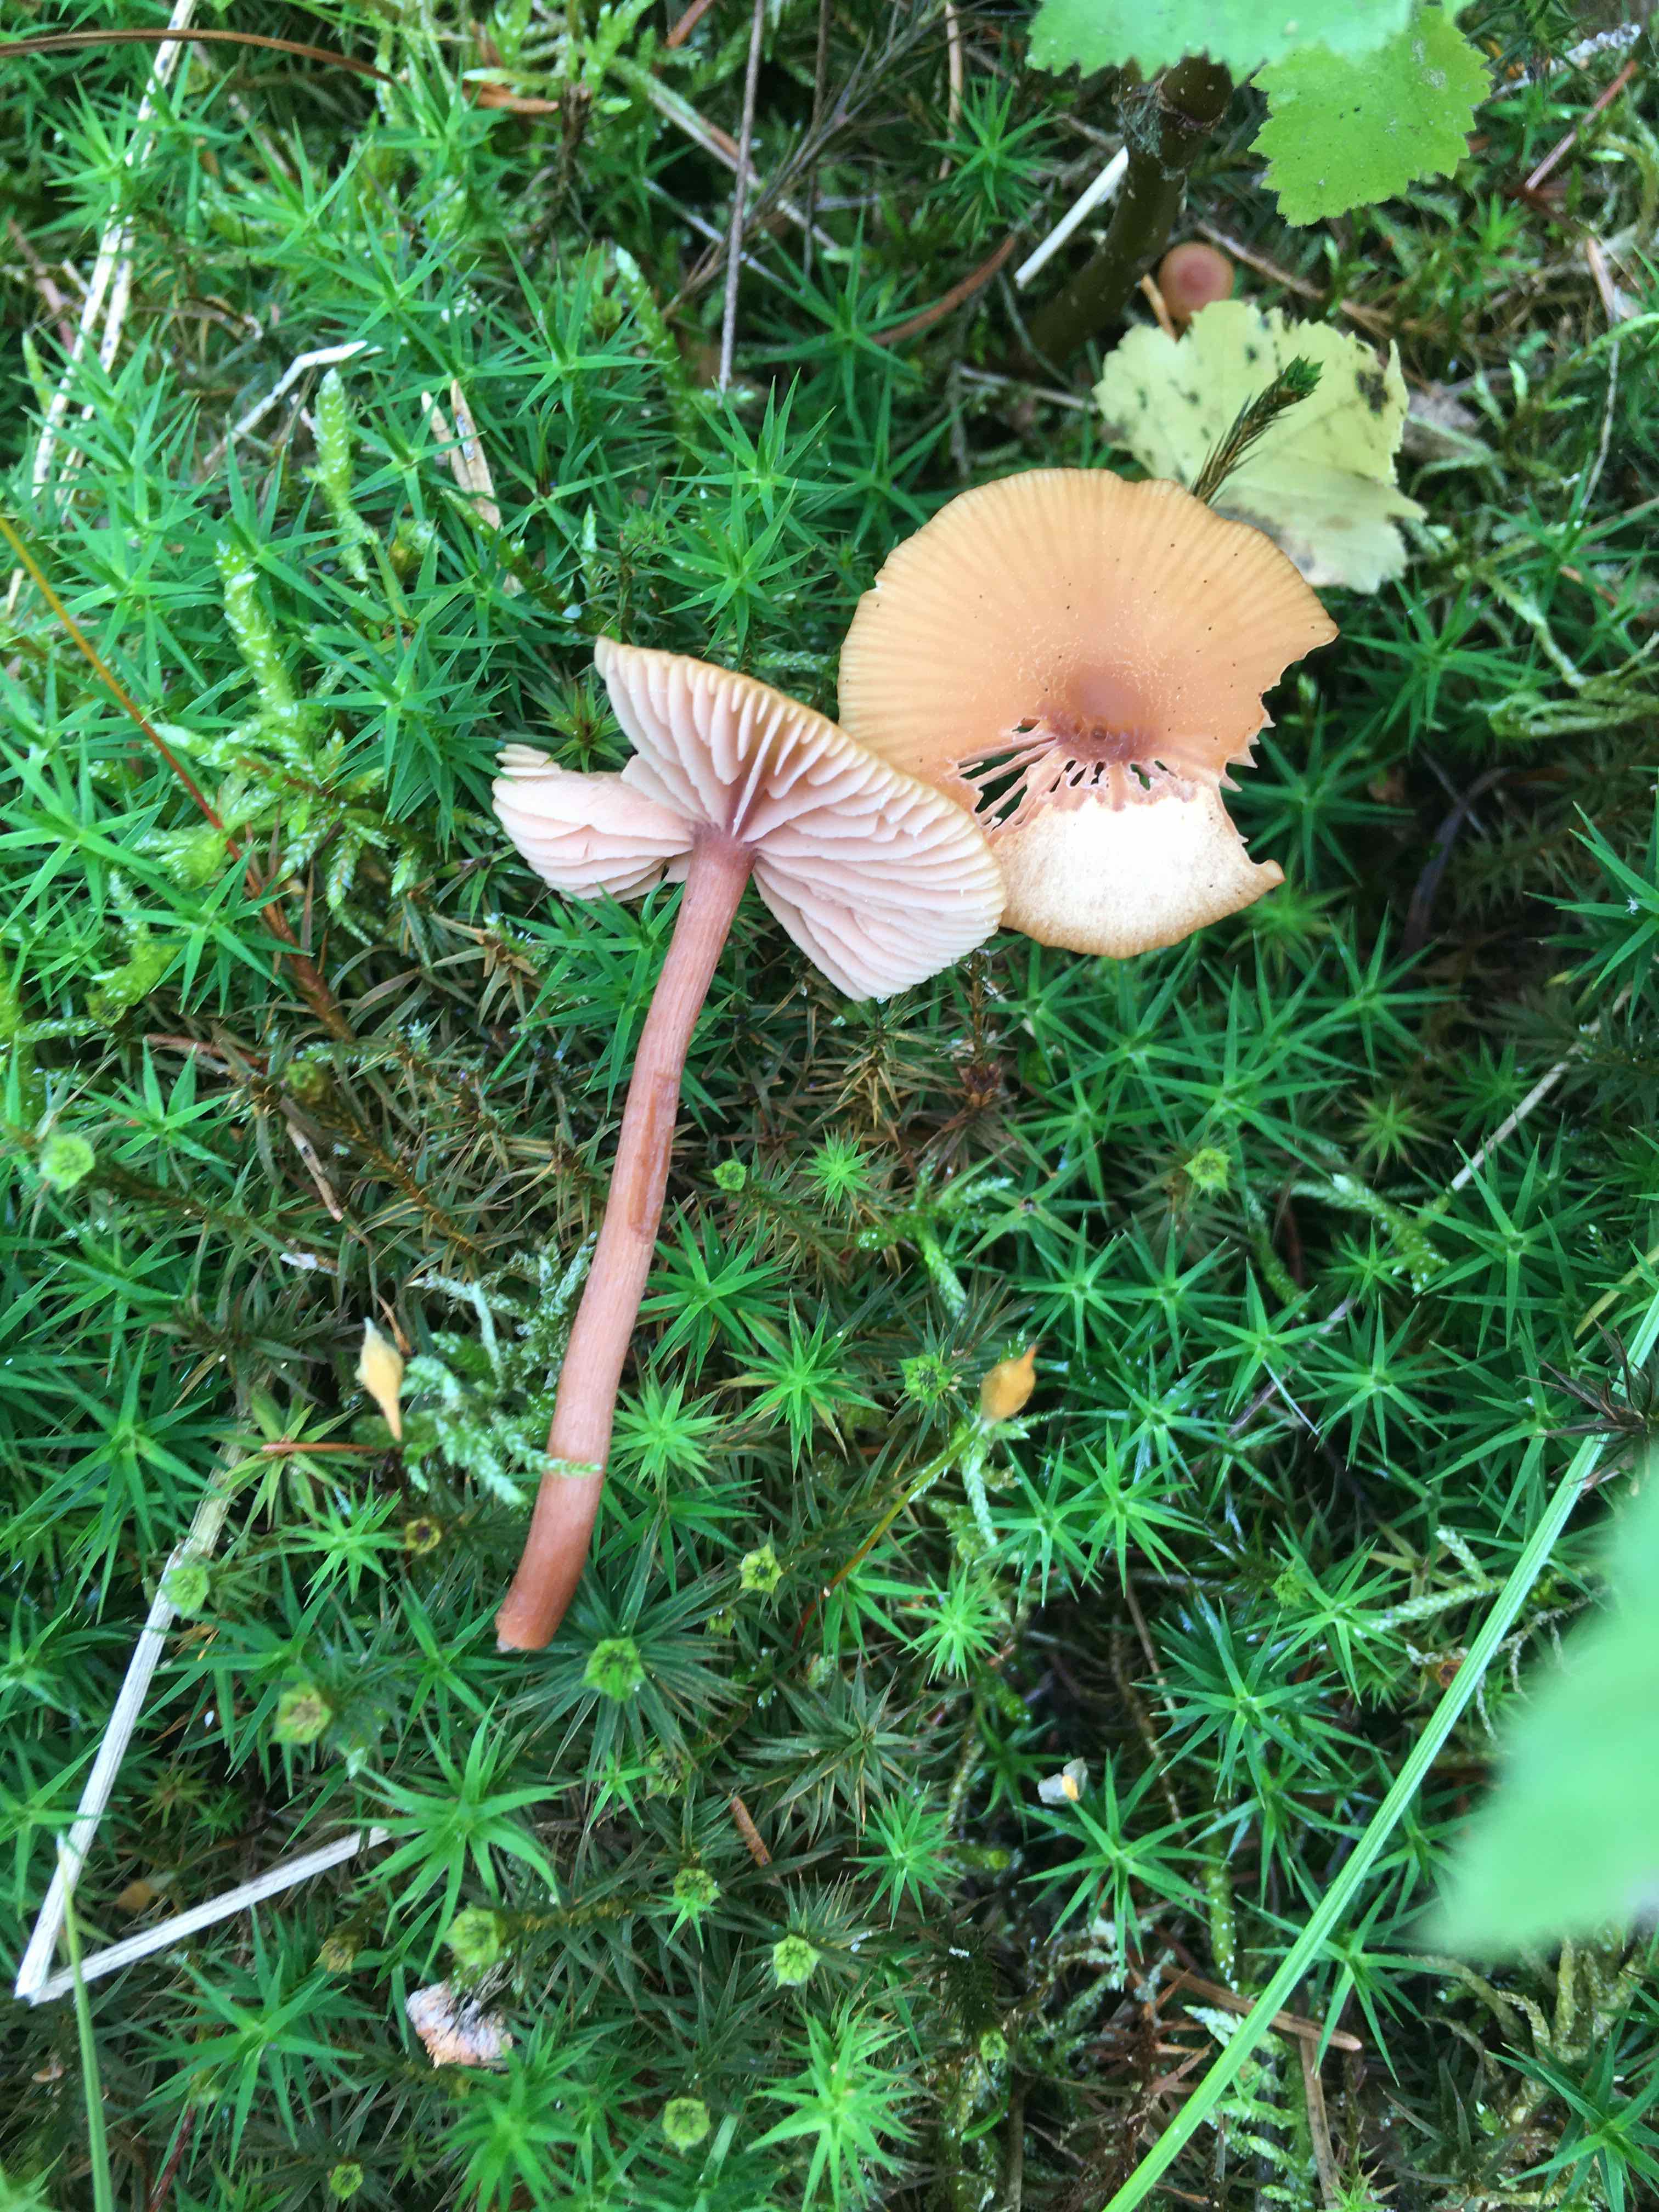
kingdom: Fungi
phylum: Basidiomycota
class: Agaricomycetes
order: Agaricales
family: Hydnangiaceae
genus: Laccaria
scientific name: Laccaria laccata
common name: rød ametysthat
